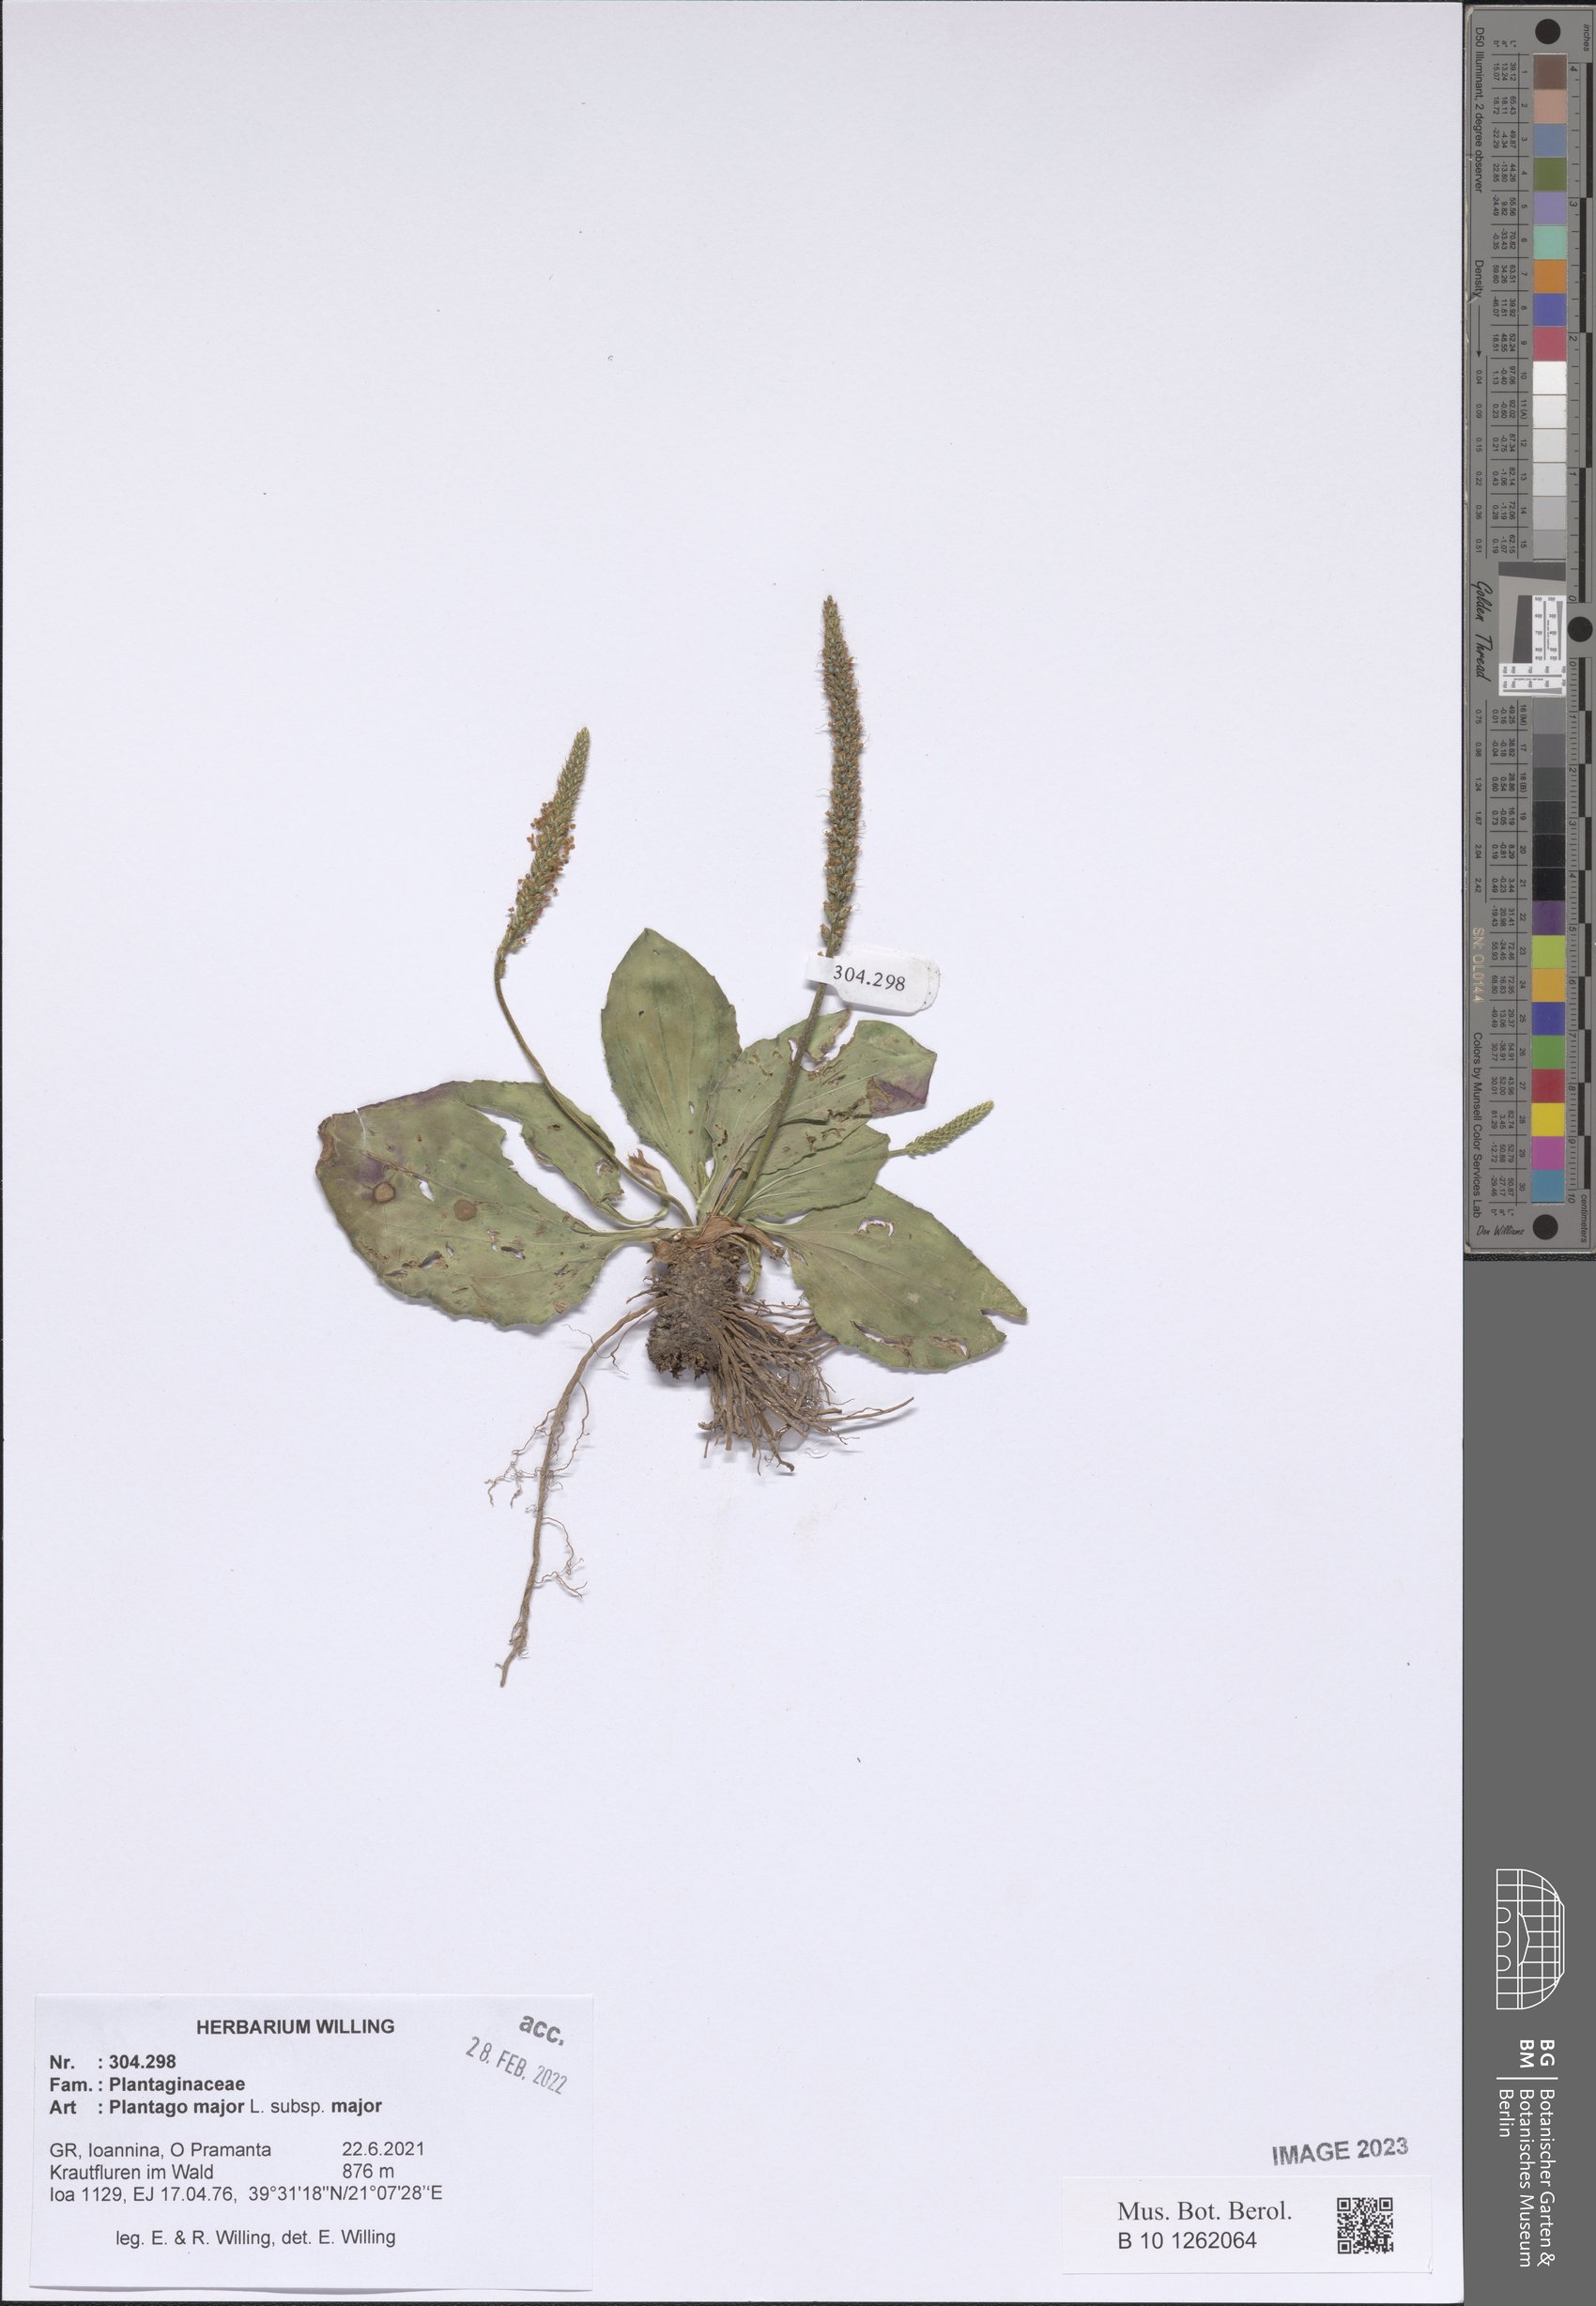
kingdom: Plantae
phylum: Tracheophyta
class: Magnoliopsida
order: Lamiales
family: Plantaginaceae
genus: Plantago
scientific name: Plantago major
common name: Common plantain
